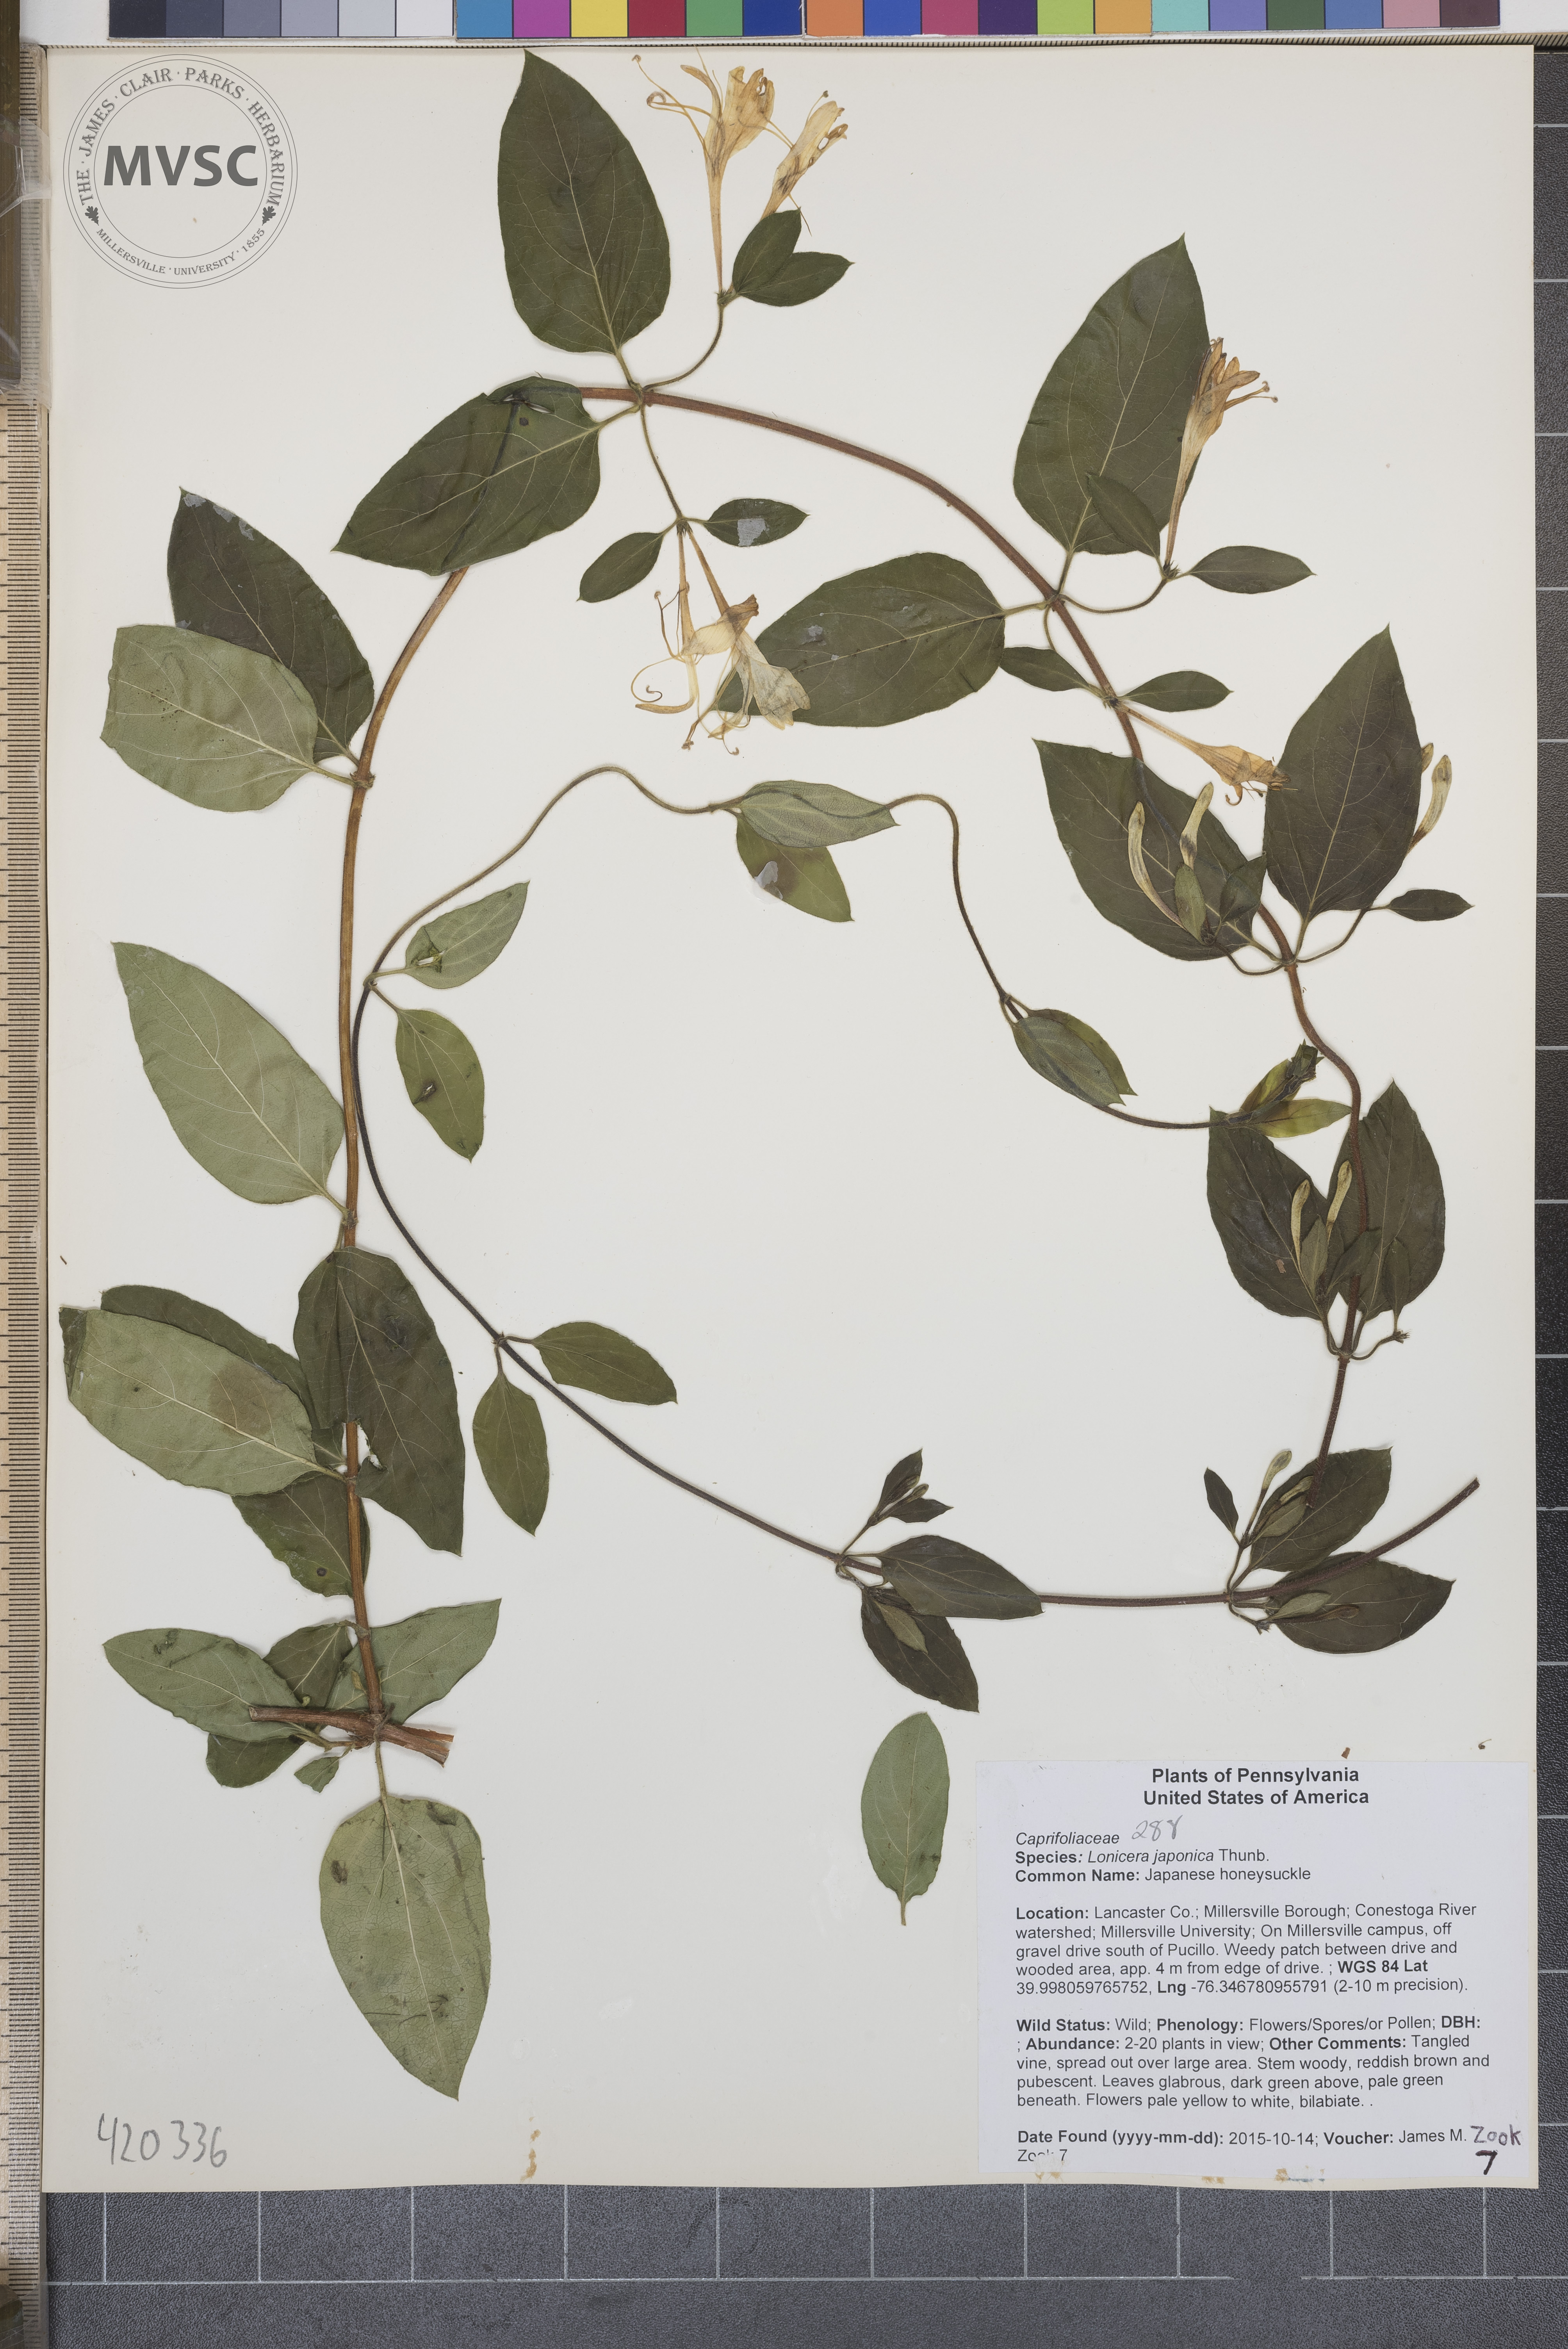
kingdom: Plantae
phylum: Tracheophyta
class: Magnoliopsida
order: Dipsacales
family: Caprifoliaceae
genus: Lonicera
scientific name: Lonicera japonica
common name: Japanese honeysuckle
